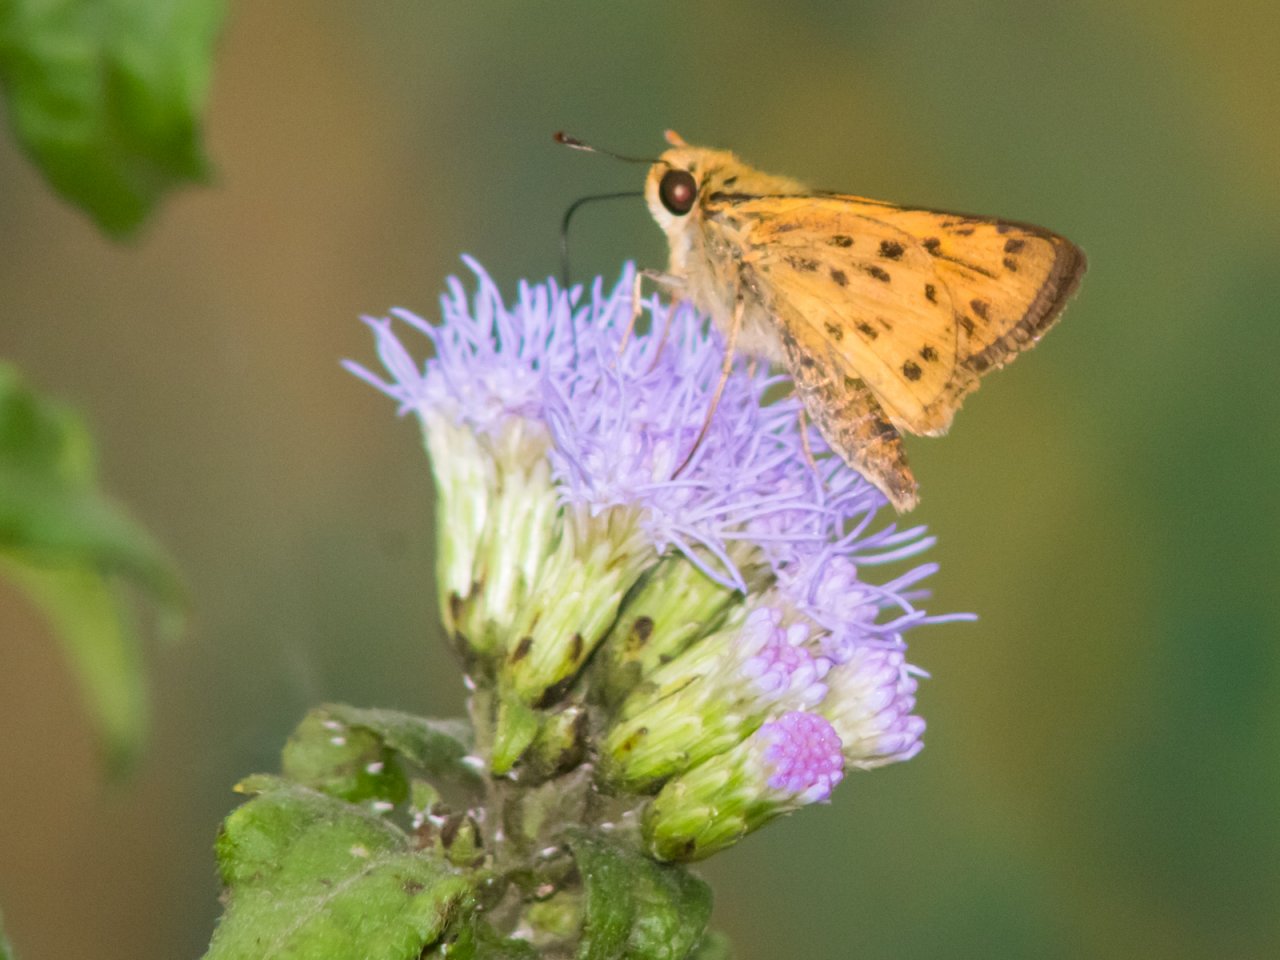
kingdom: Animalia
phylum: Arthropoda
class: Insecta
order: Lepidoptera
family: Hesperiidae
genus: Hylephila
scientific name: Hylephila phyleus
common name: Fiery Skipper
